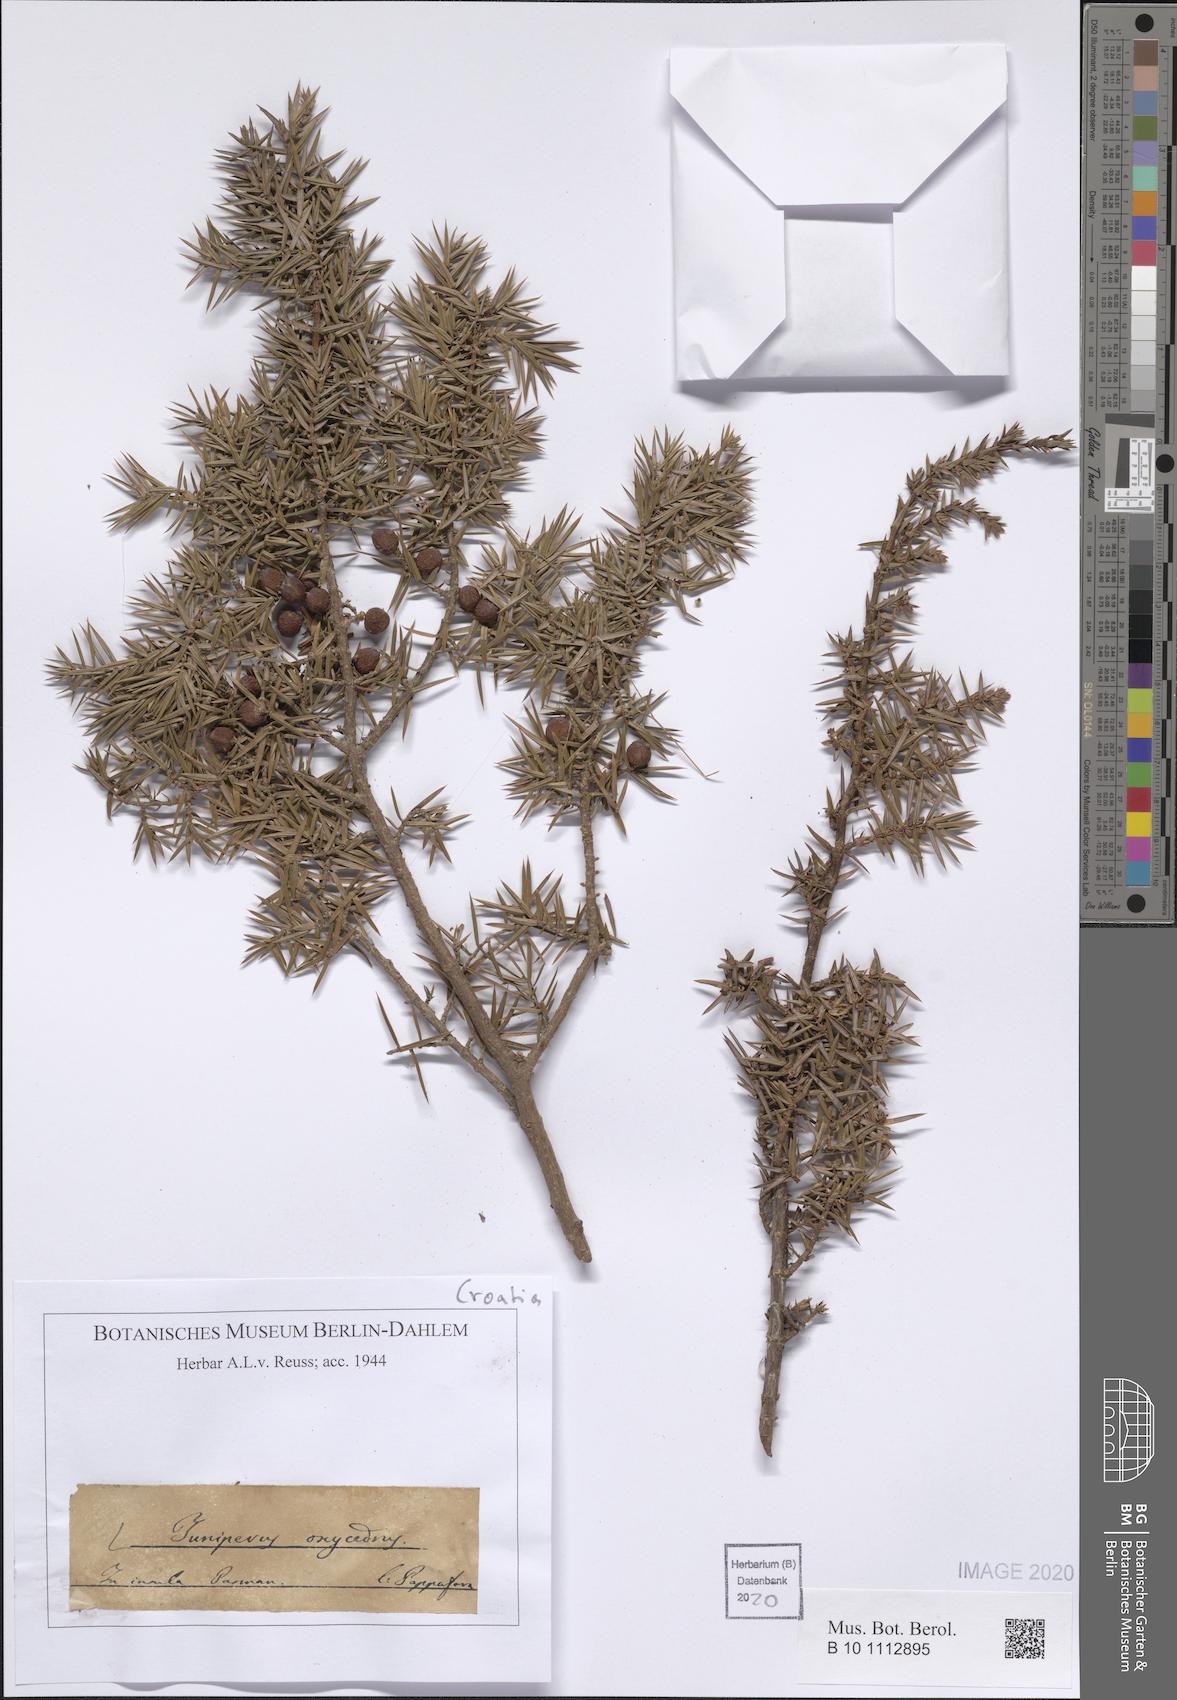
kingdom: Plantae
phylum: Tracheophyta
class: Pinopsida
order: Pinales
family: Cupressaceae
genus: Juniperus
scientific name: Juniperus oxycedrus
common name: Prickly juniper
